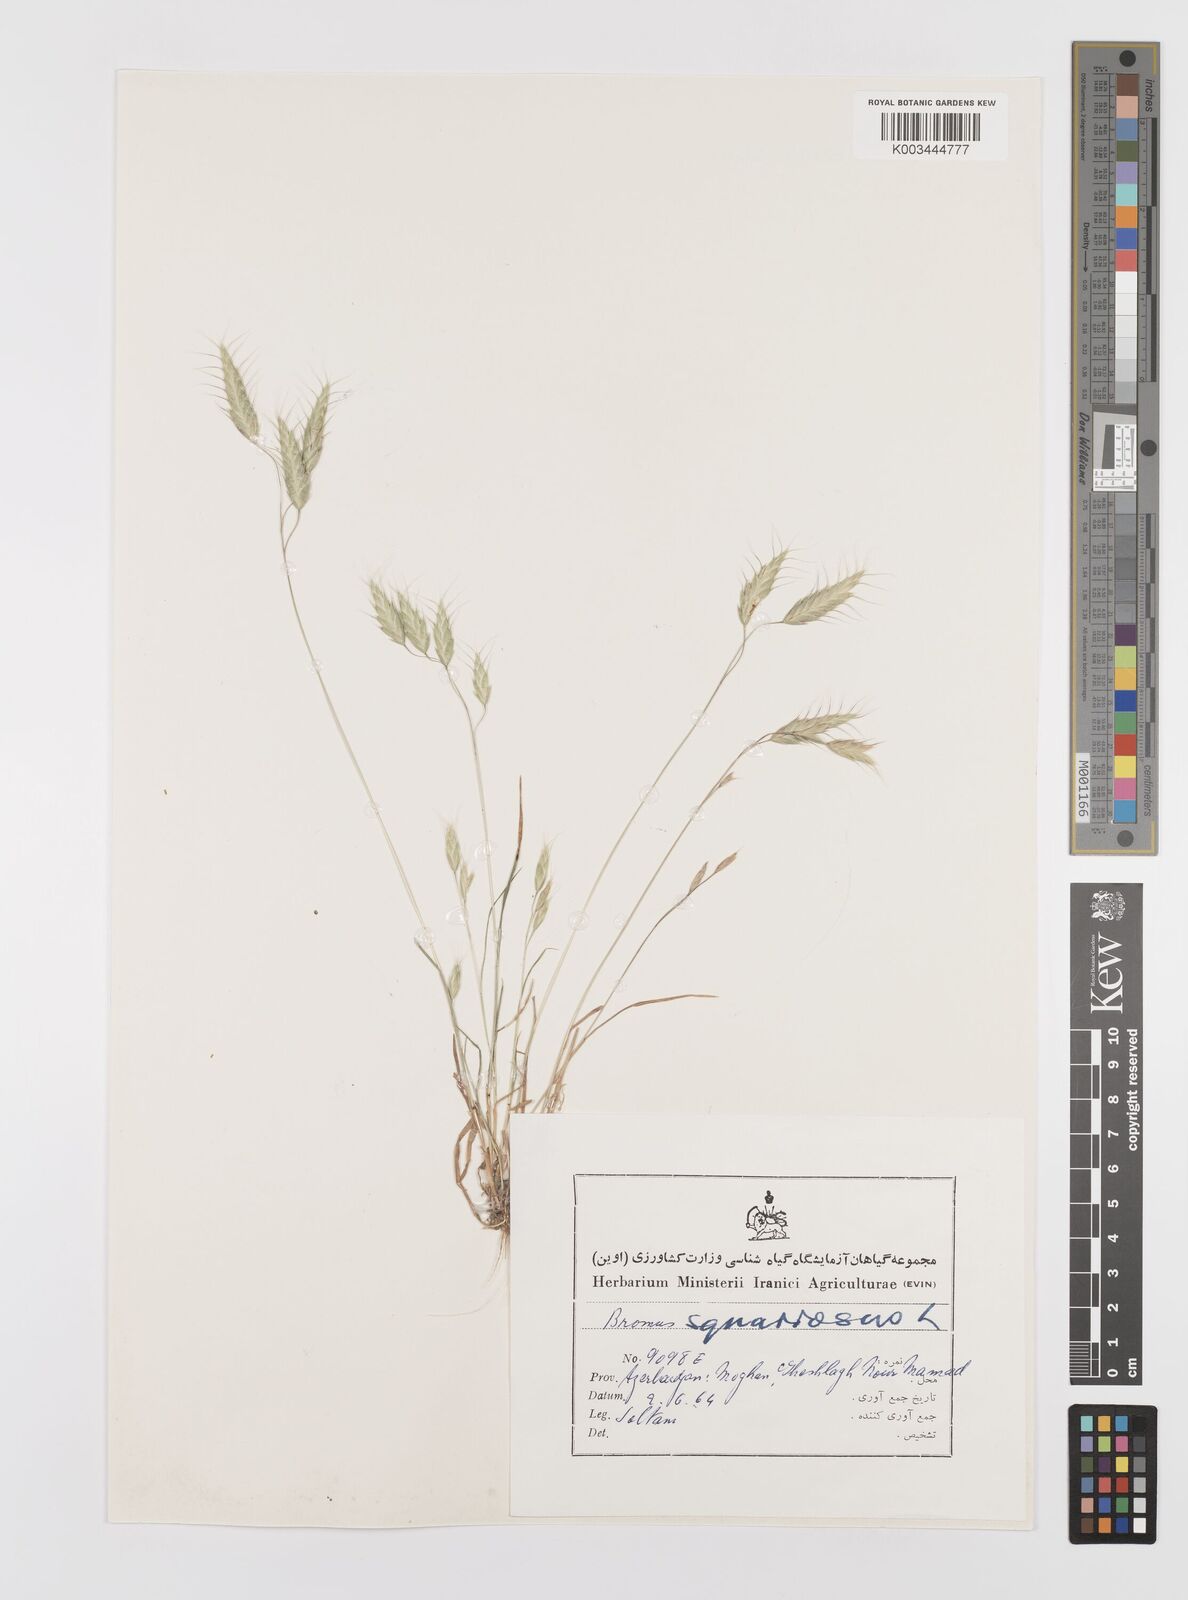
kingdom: Plantae
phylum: Tracheophyta
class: Liliopsida
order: Poales
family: Poaceae
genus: Bromus
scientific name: Bromus squarrosus
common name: Corn brome
